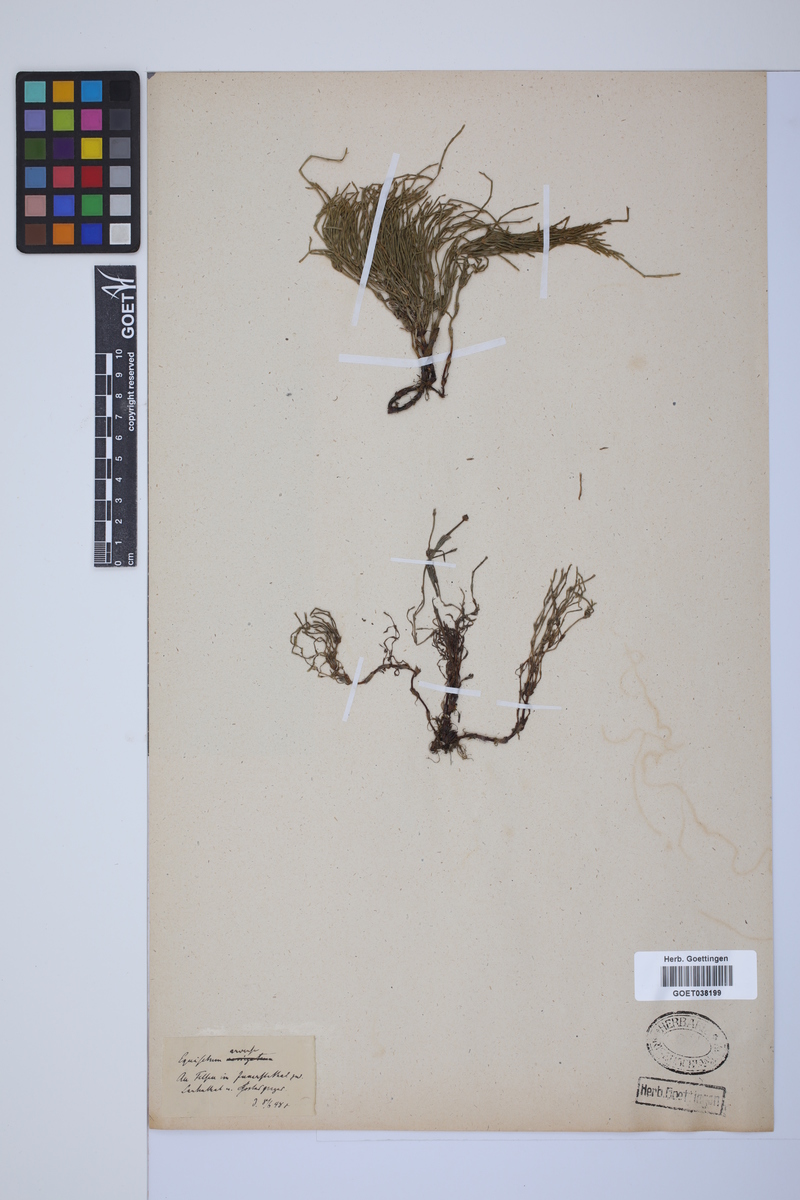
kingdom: Plantae
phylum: Tracheophyta
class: Polypodiopsida
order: Equisetales
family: Equisetaceae
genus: Equisetum
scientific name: Equisetum arvense
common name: Field horsetail
